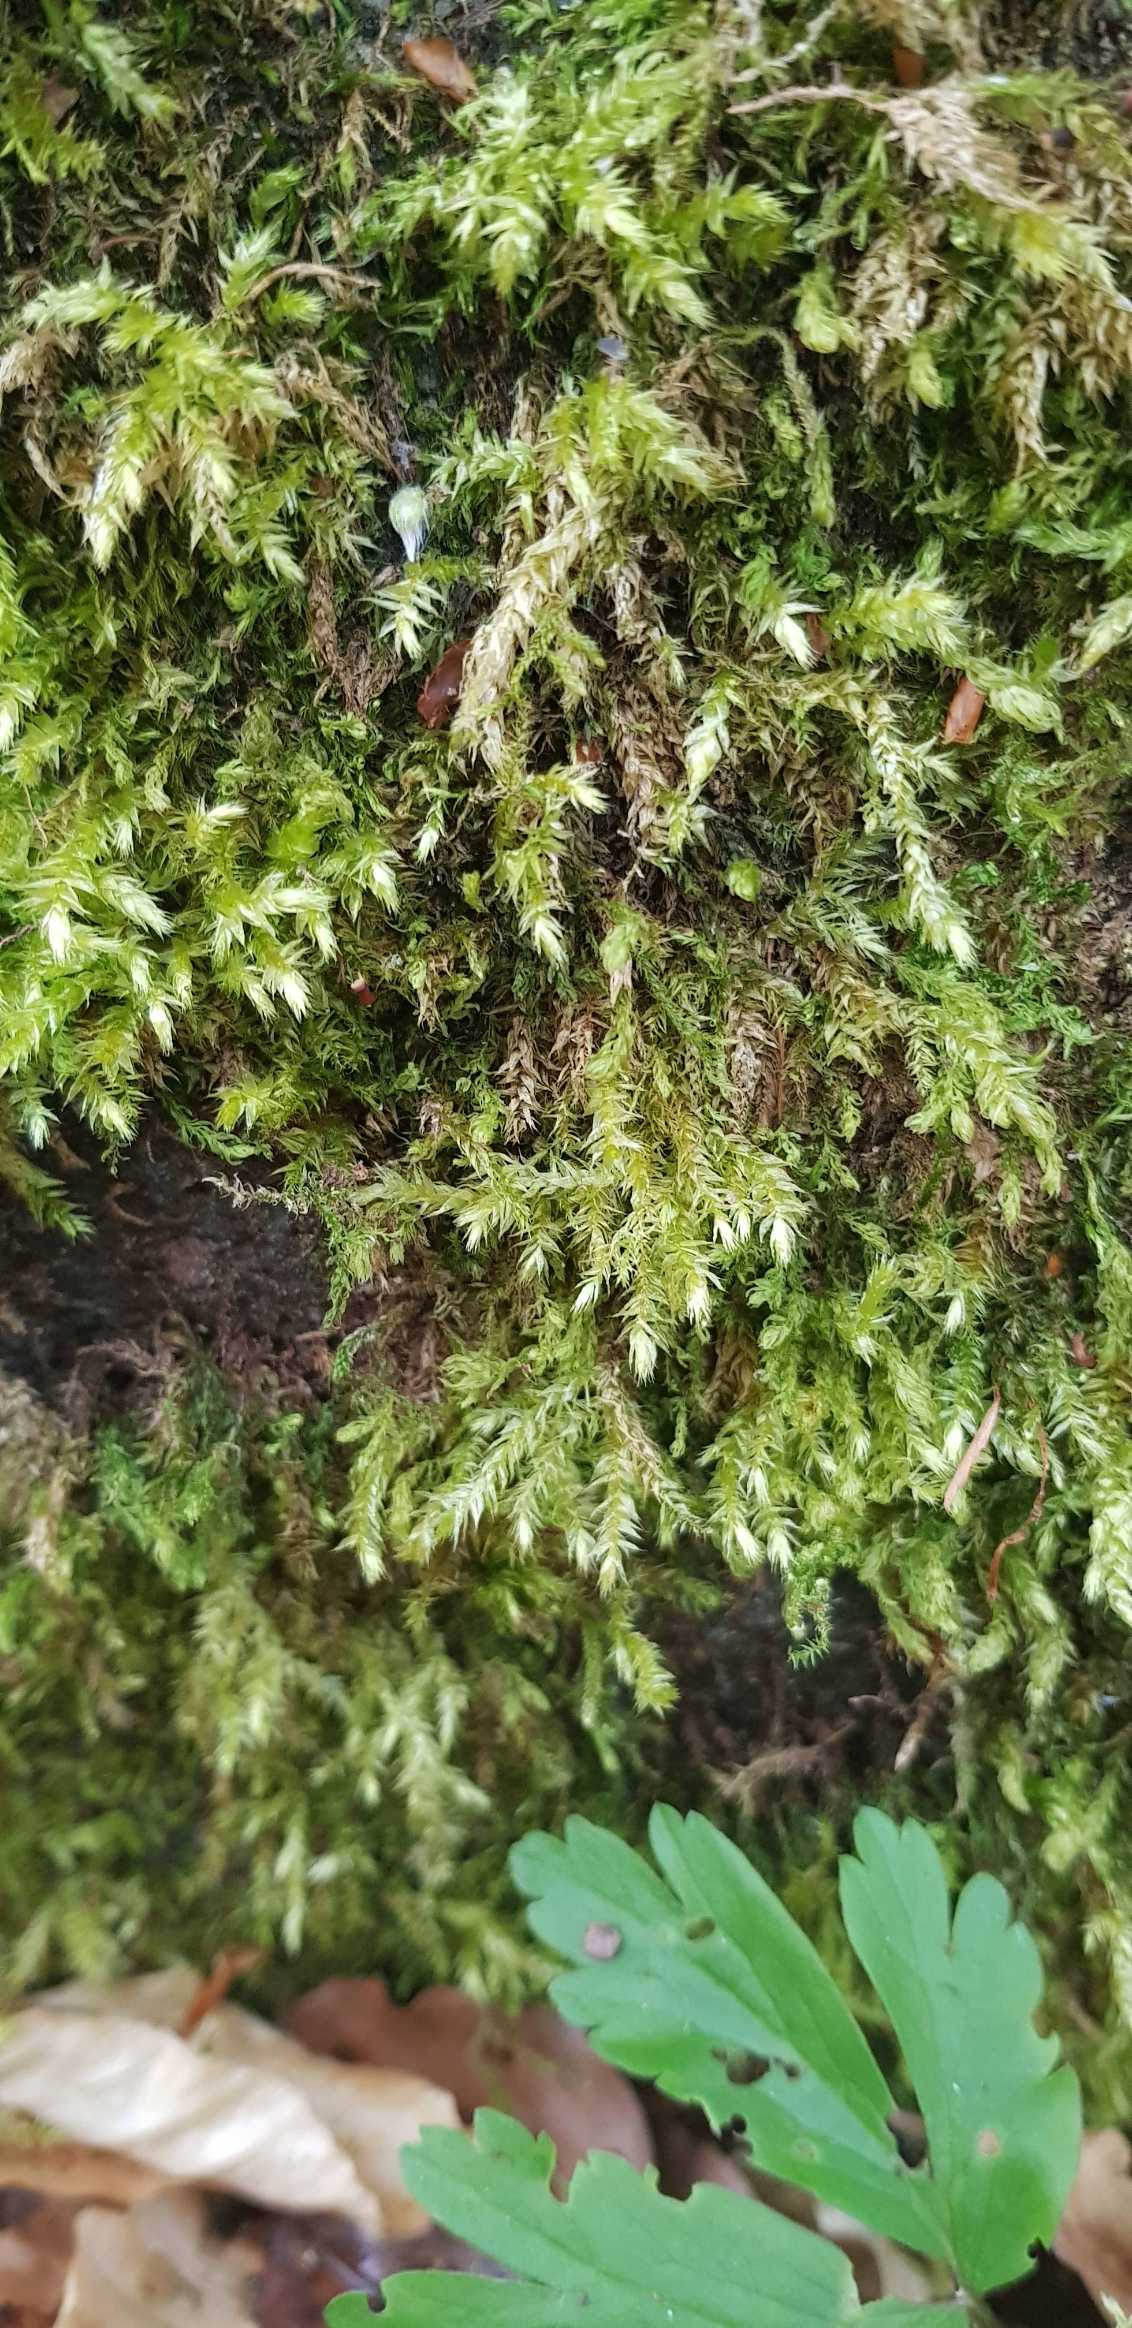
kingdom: Plantae
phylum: Bryophyta
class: Bryopsida
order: Hypnales
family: Brachytheciaceae
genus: Brachythecium
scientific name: Brachythecium rutabulum
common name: Almindelig kortkapsel
